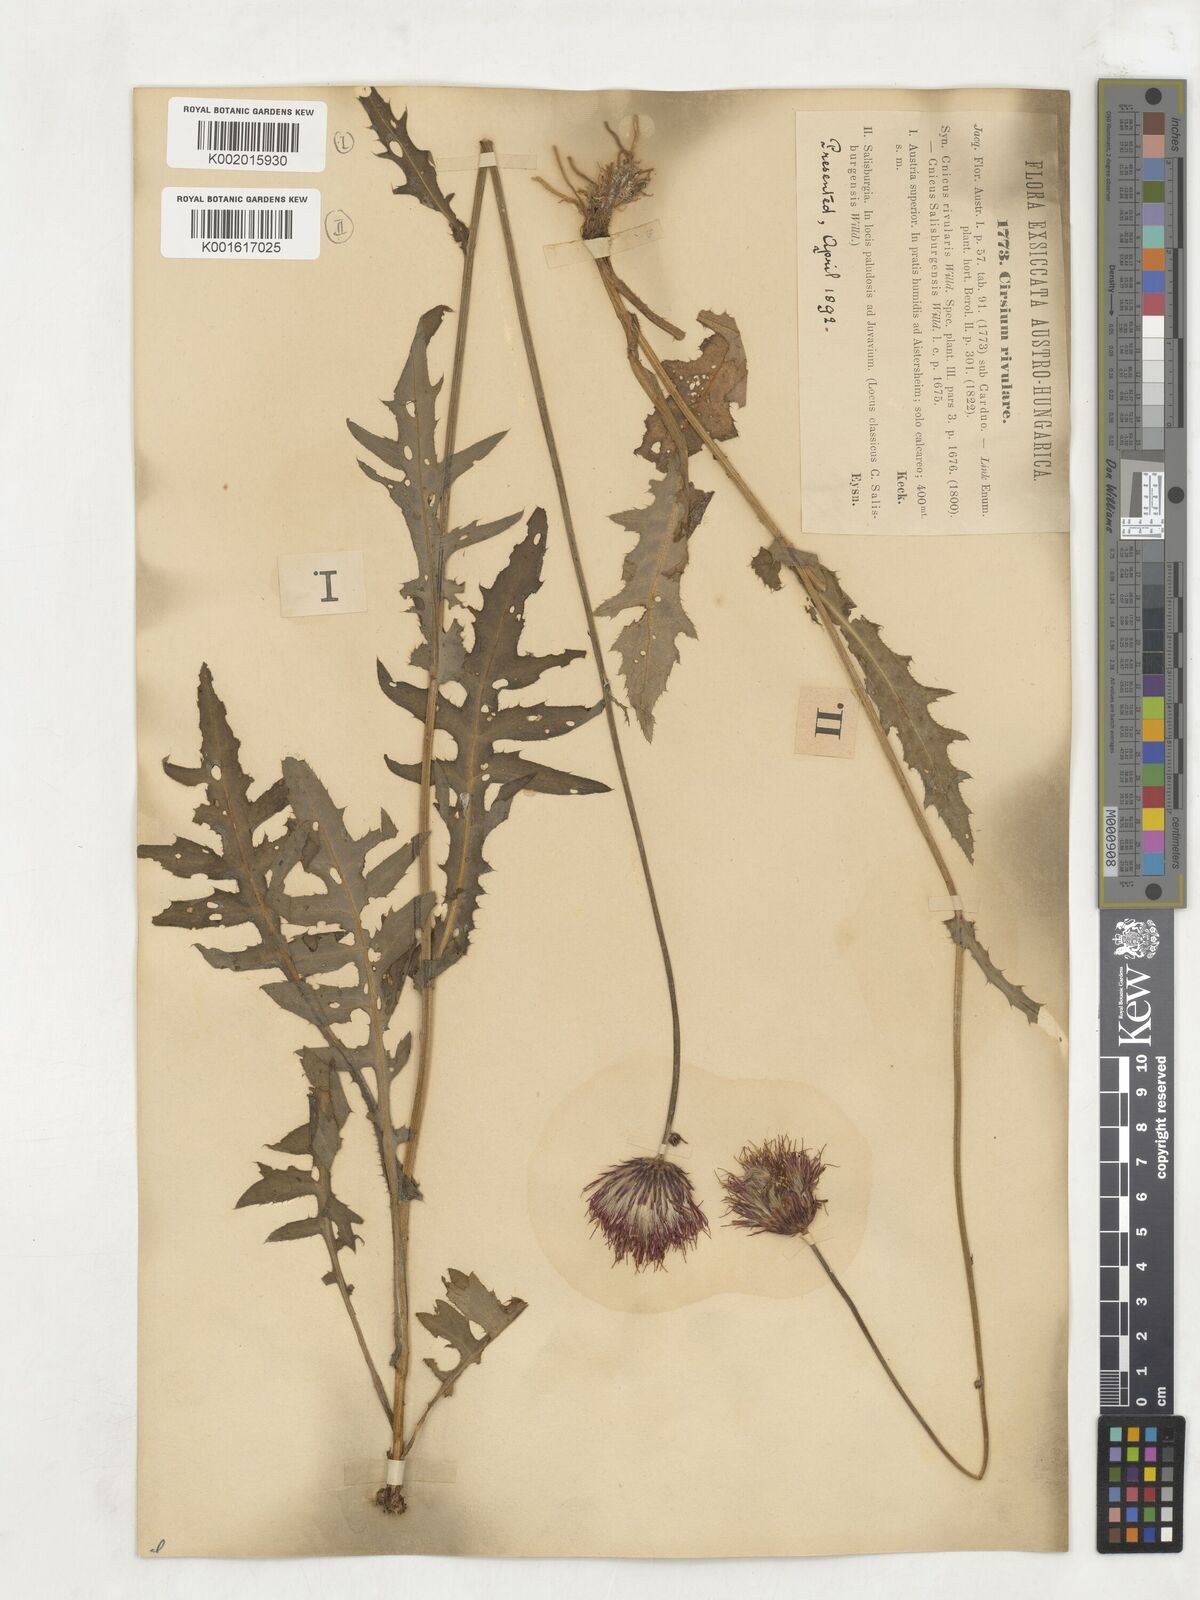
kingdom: Plantae
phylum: Tracheophyta
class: Magnoliopsida
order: Asterales
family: Asteraceae
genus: Cirsium
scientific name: Cirsium rivulare
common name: Brook thistle
